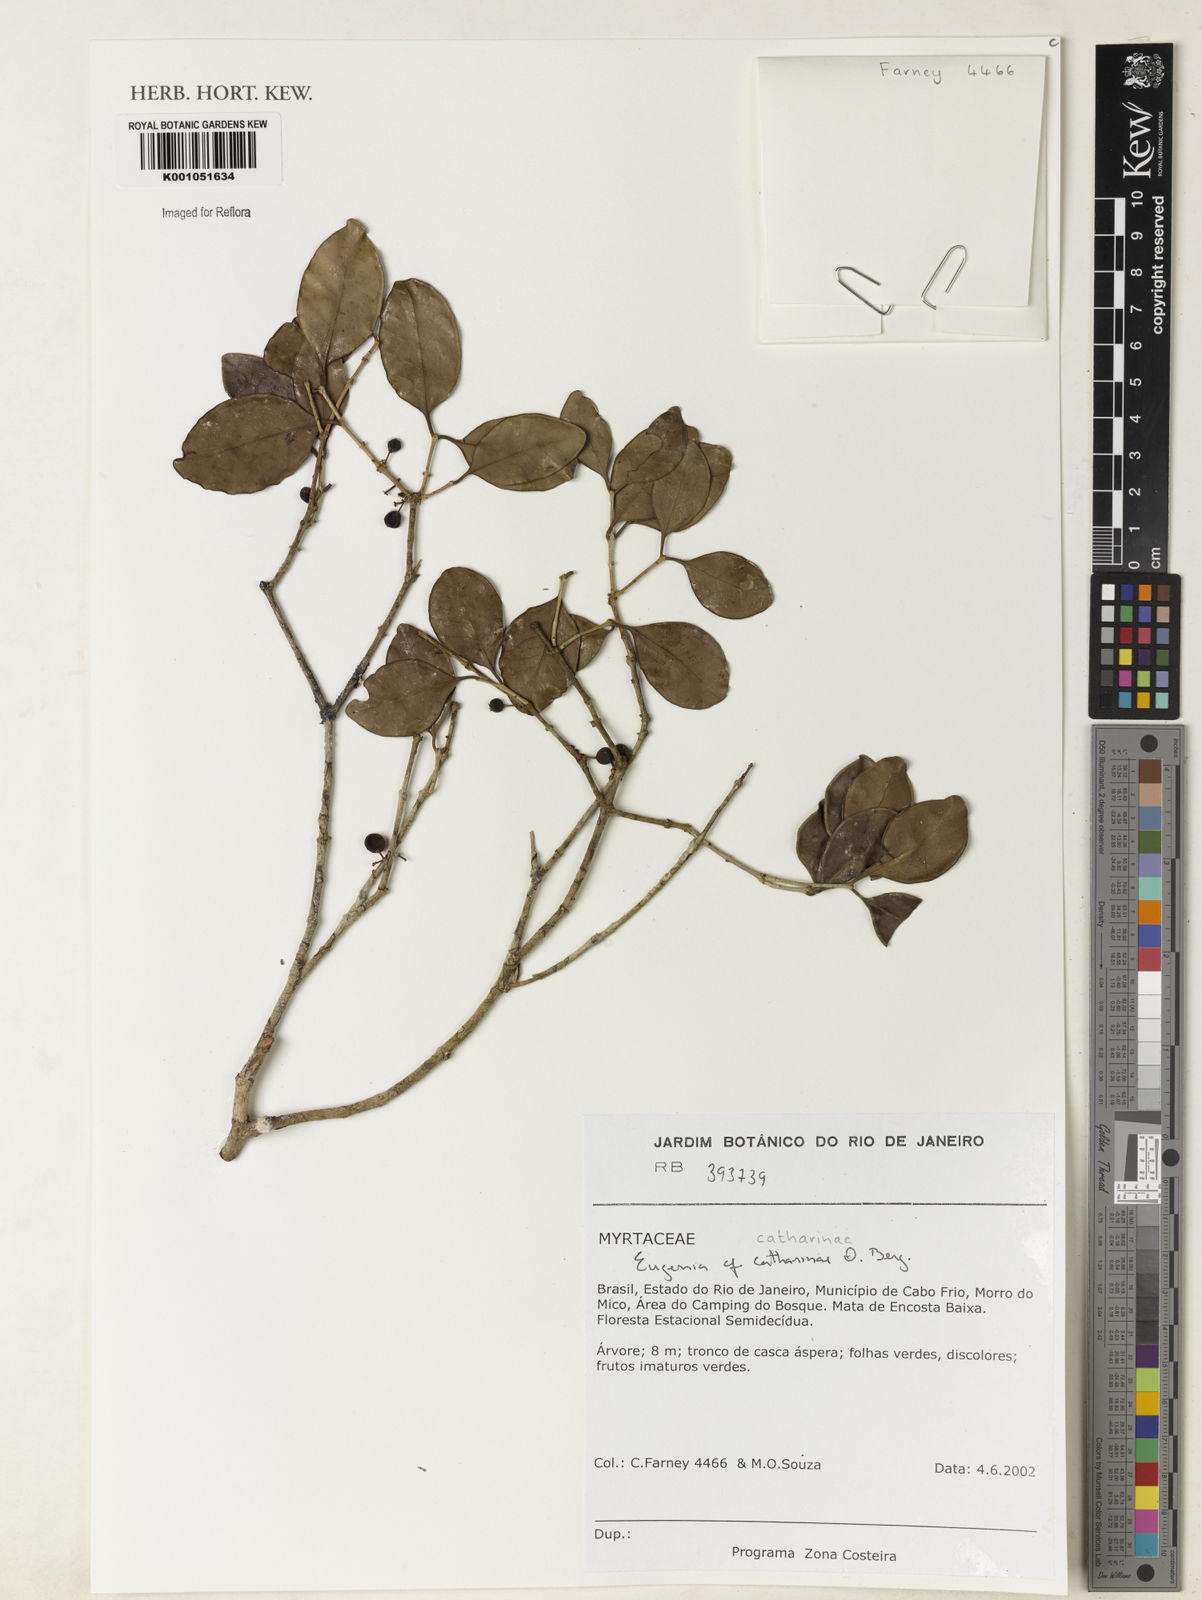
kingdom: Plantae
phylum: Tracheophyta
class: Magnoliopsida
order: Myrtales
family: Myrtaceae
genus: Eugenia
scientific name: Eugenia catharinae
